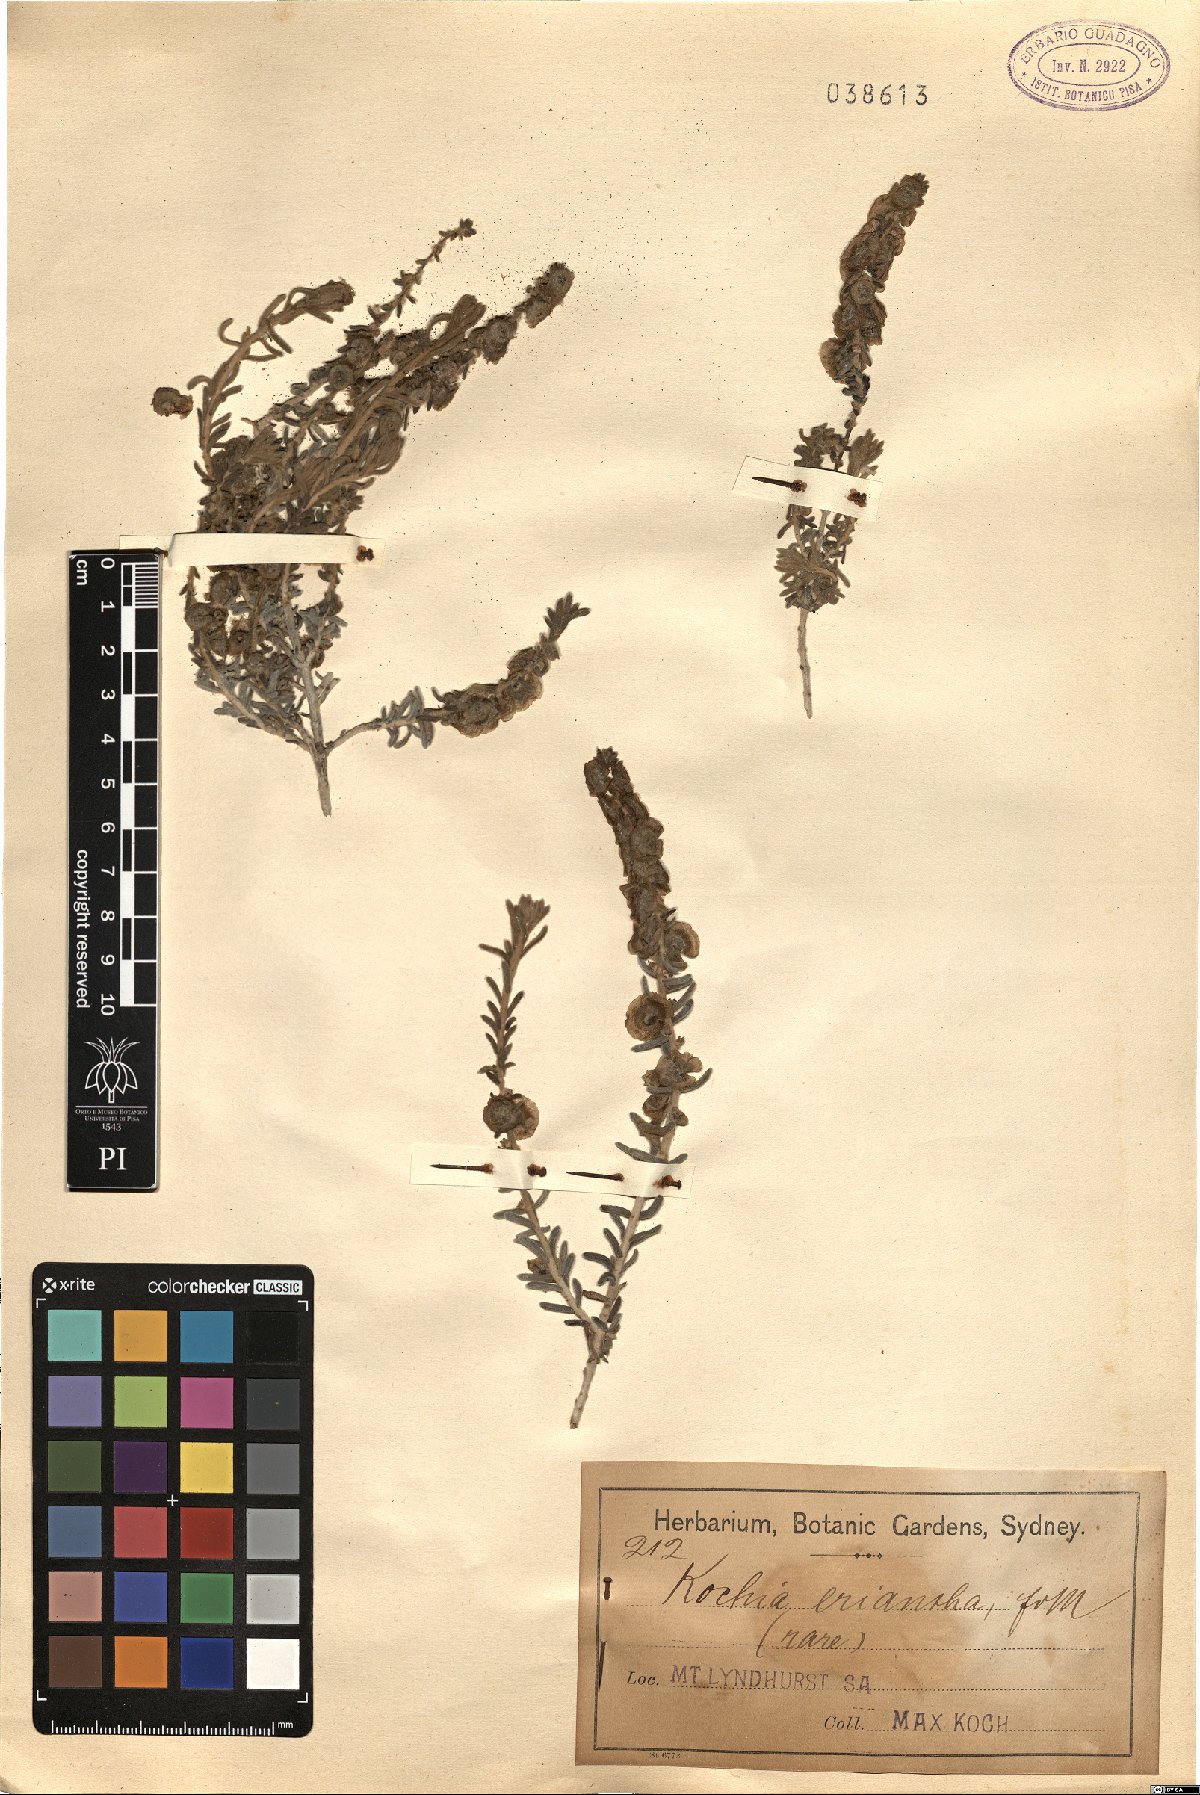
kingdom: Plantae
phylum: Tracheophyta
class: Magnoliopsida
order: Caryophyllales
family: Amaranthaceae
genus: Maireana
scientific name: Maireana eriantha
